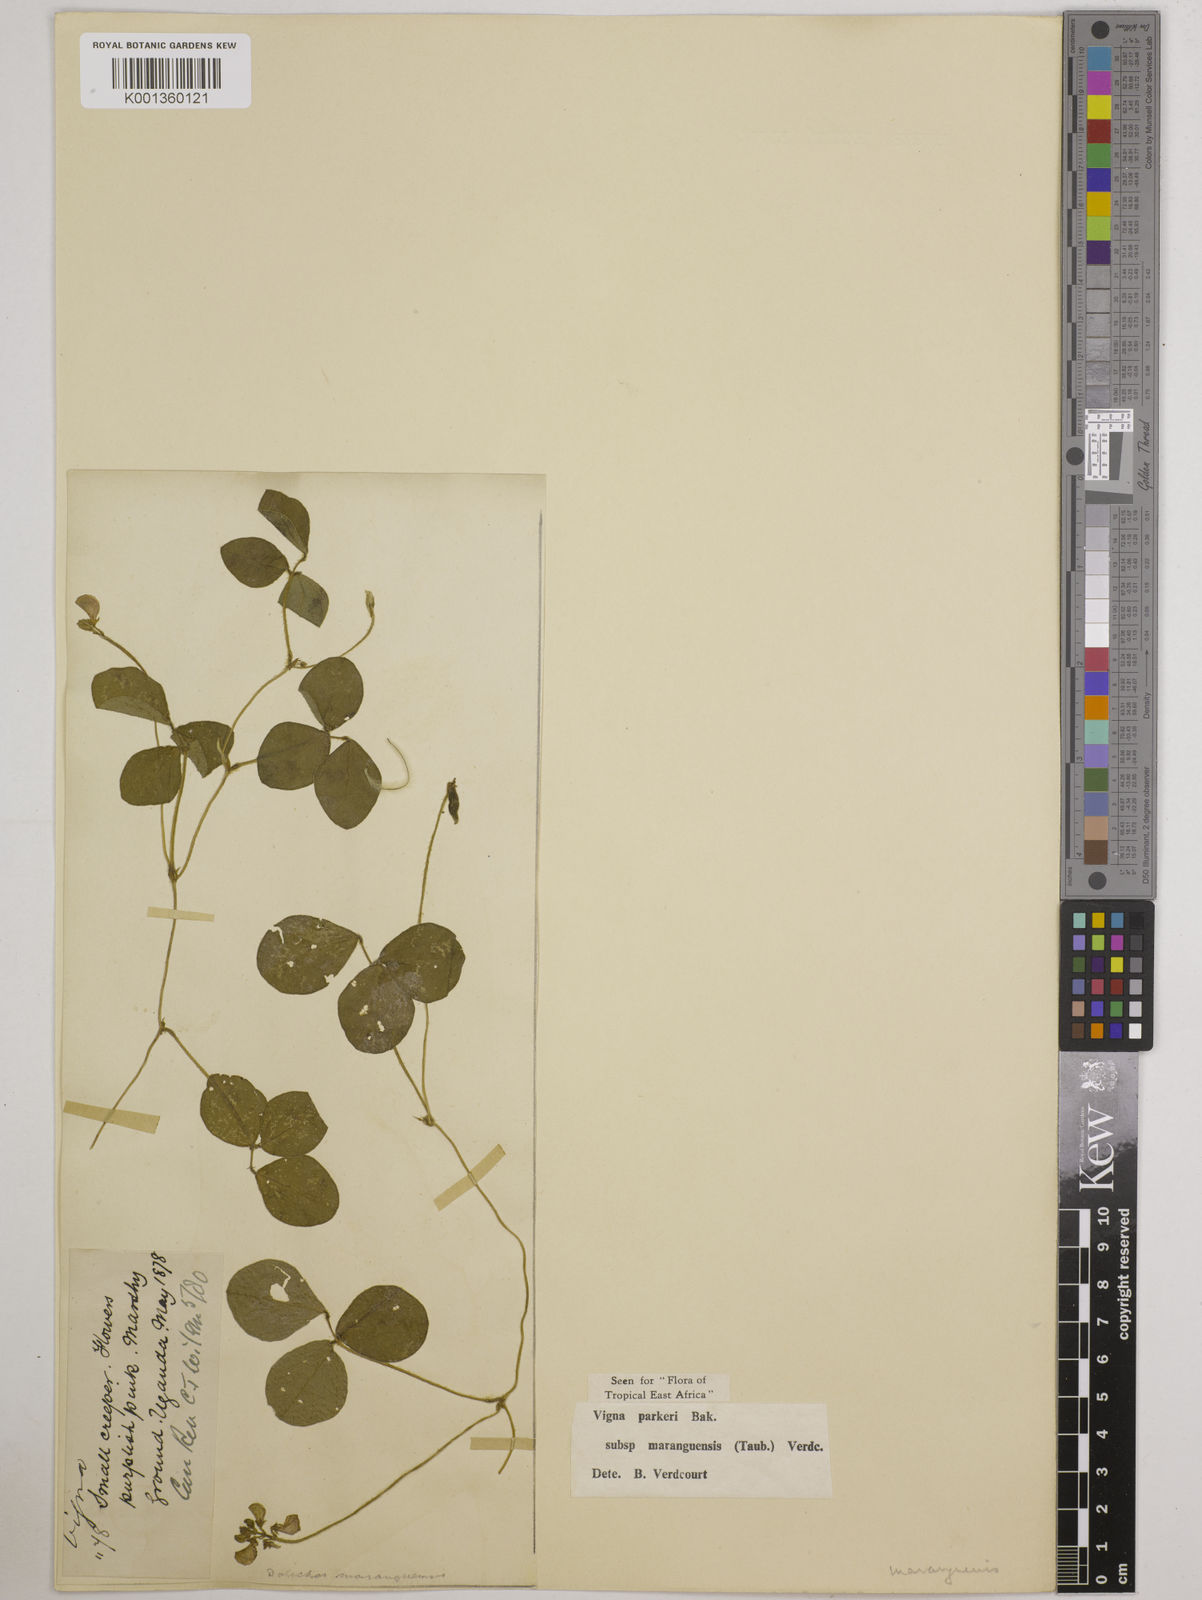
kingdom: Plantae
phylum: Tracheophyta
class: Magnoliopsida
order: Fabales
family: Fabaceae
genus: Vigna
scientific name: Vigna
